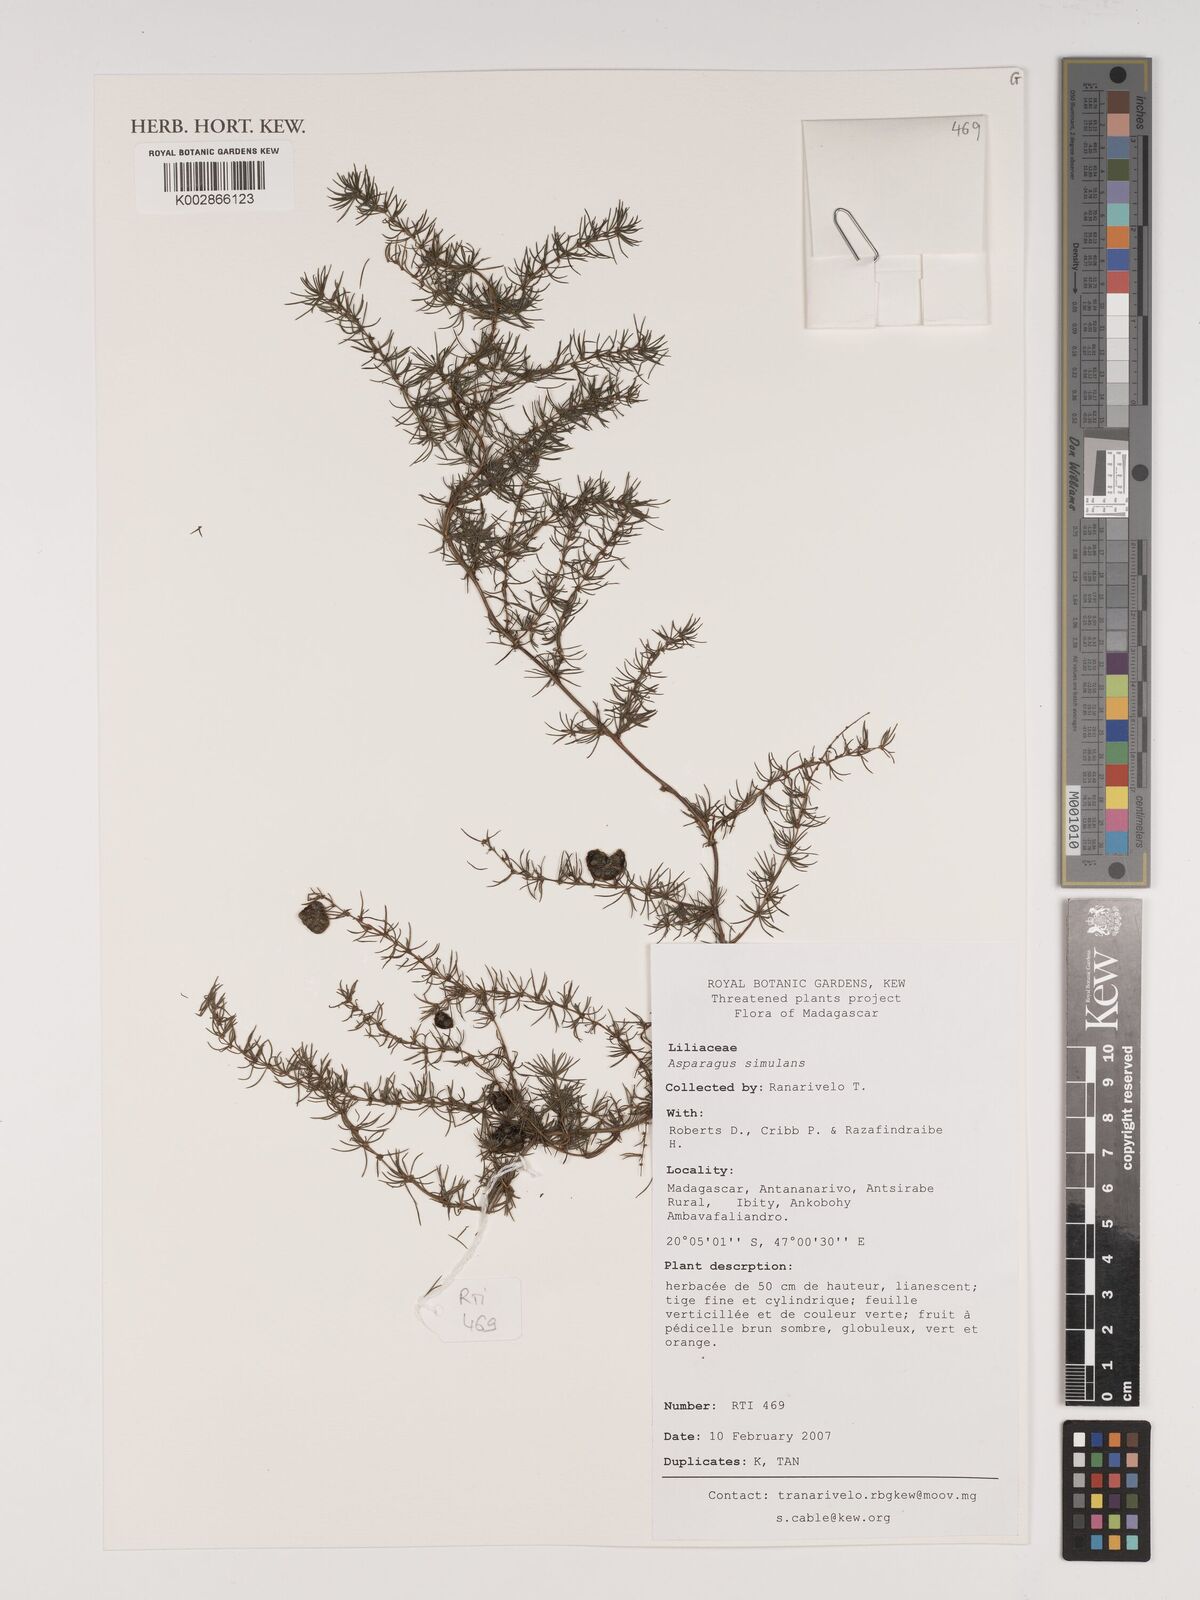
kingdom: Plantae
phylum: Tracheophyta
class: Liliopsida
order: Asparagales
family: Asparagaceae
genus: Asparagus
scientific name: Asparagus simulans
